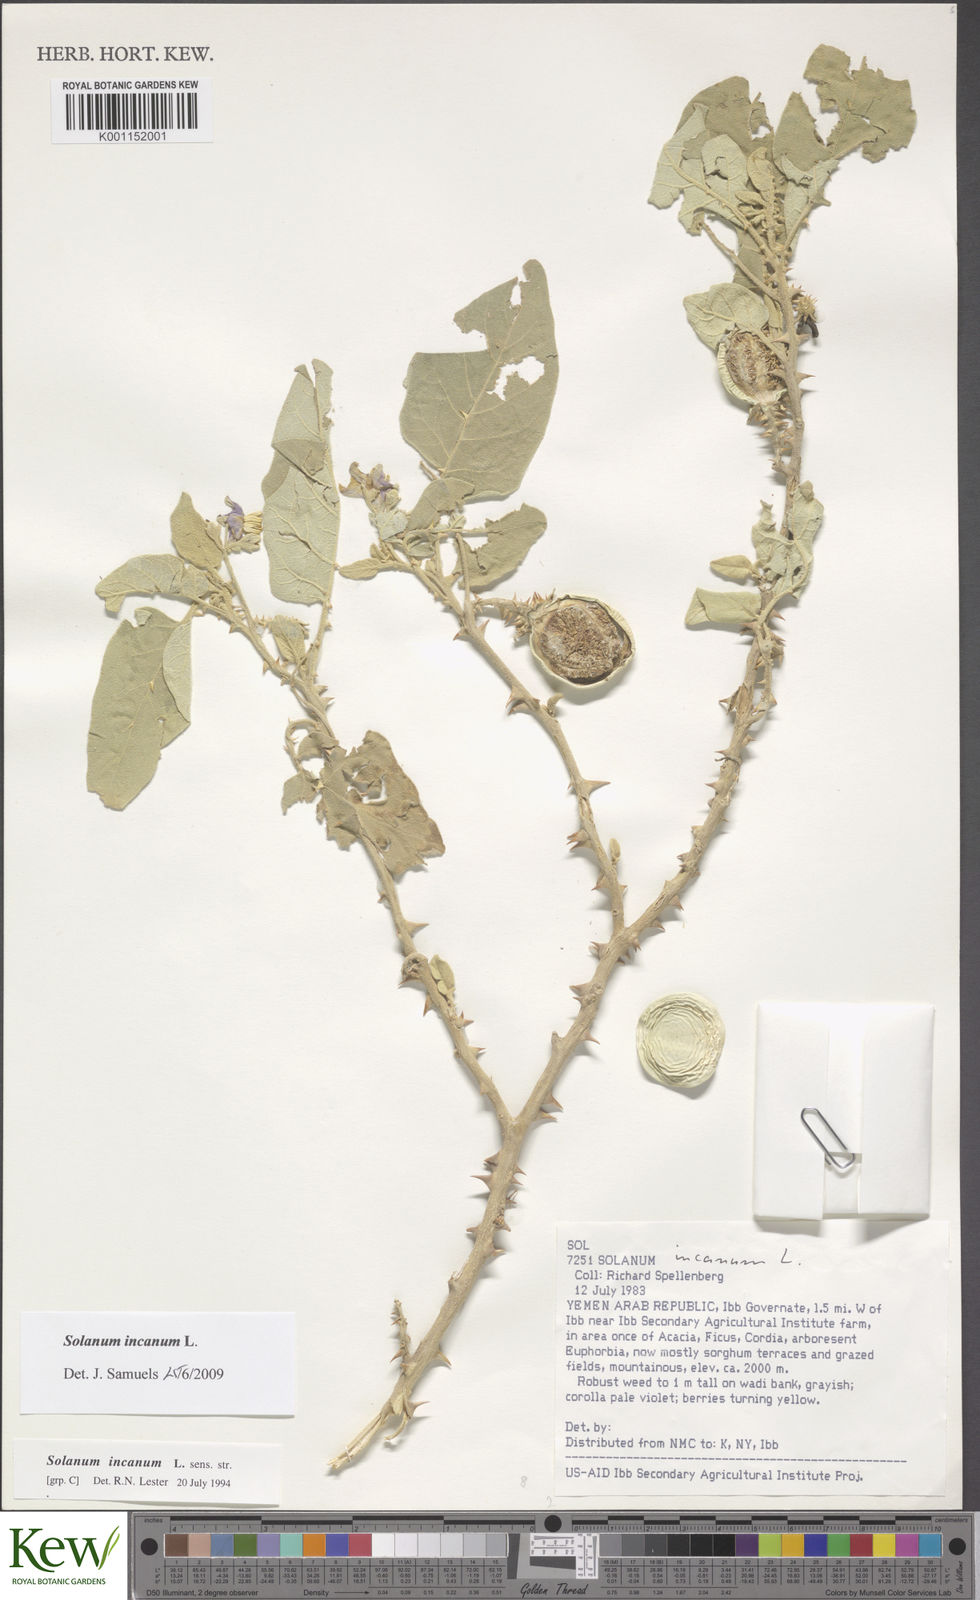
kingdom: Plantae
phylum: Tracheophyta
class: Magnoliopsida
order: Solanales
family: Solanaceae
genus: Solanum
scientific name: Solanum incanum
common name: Bitter apple
